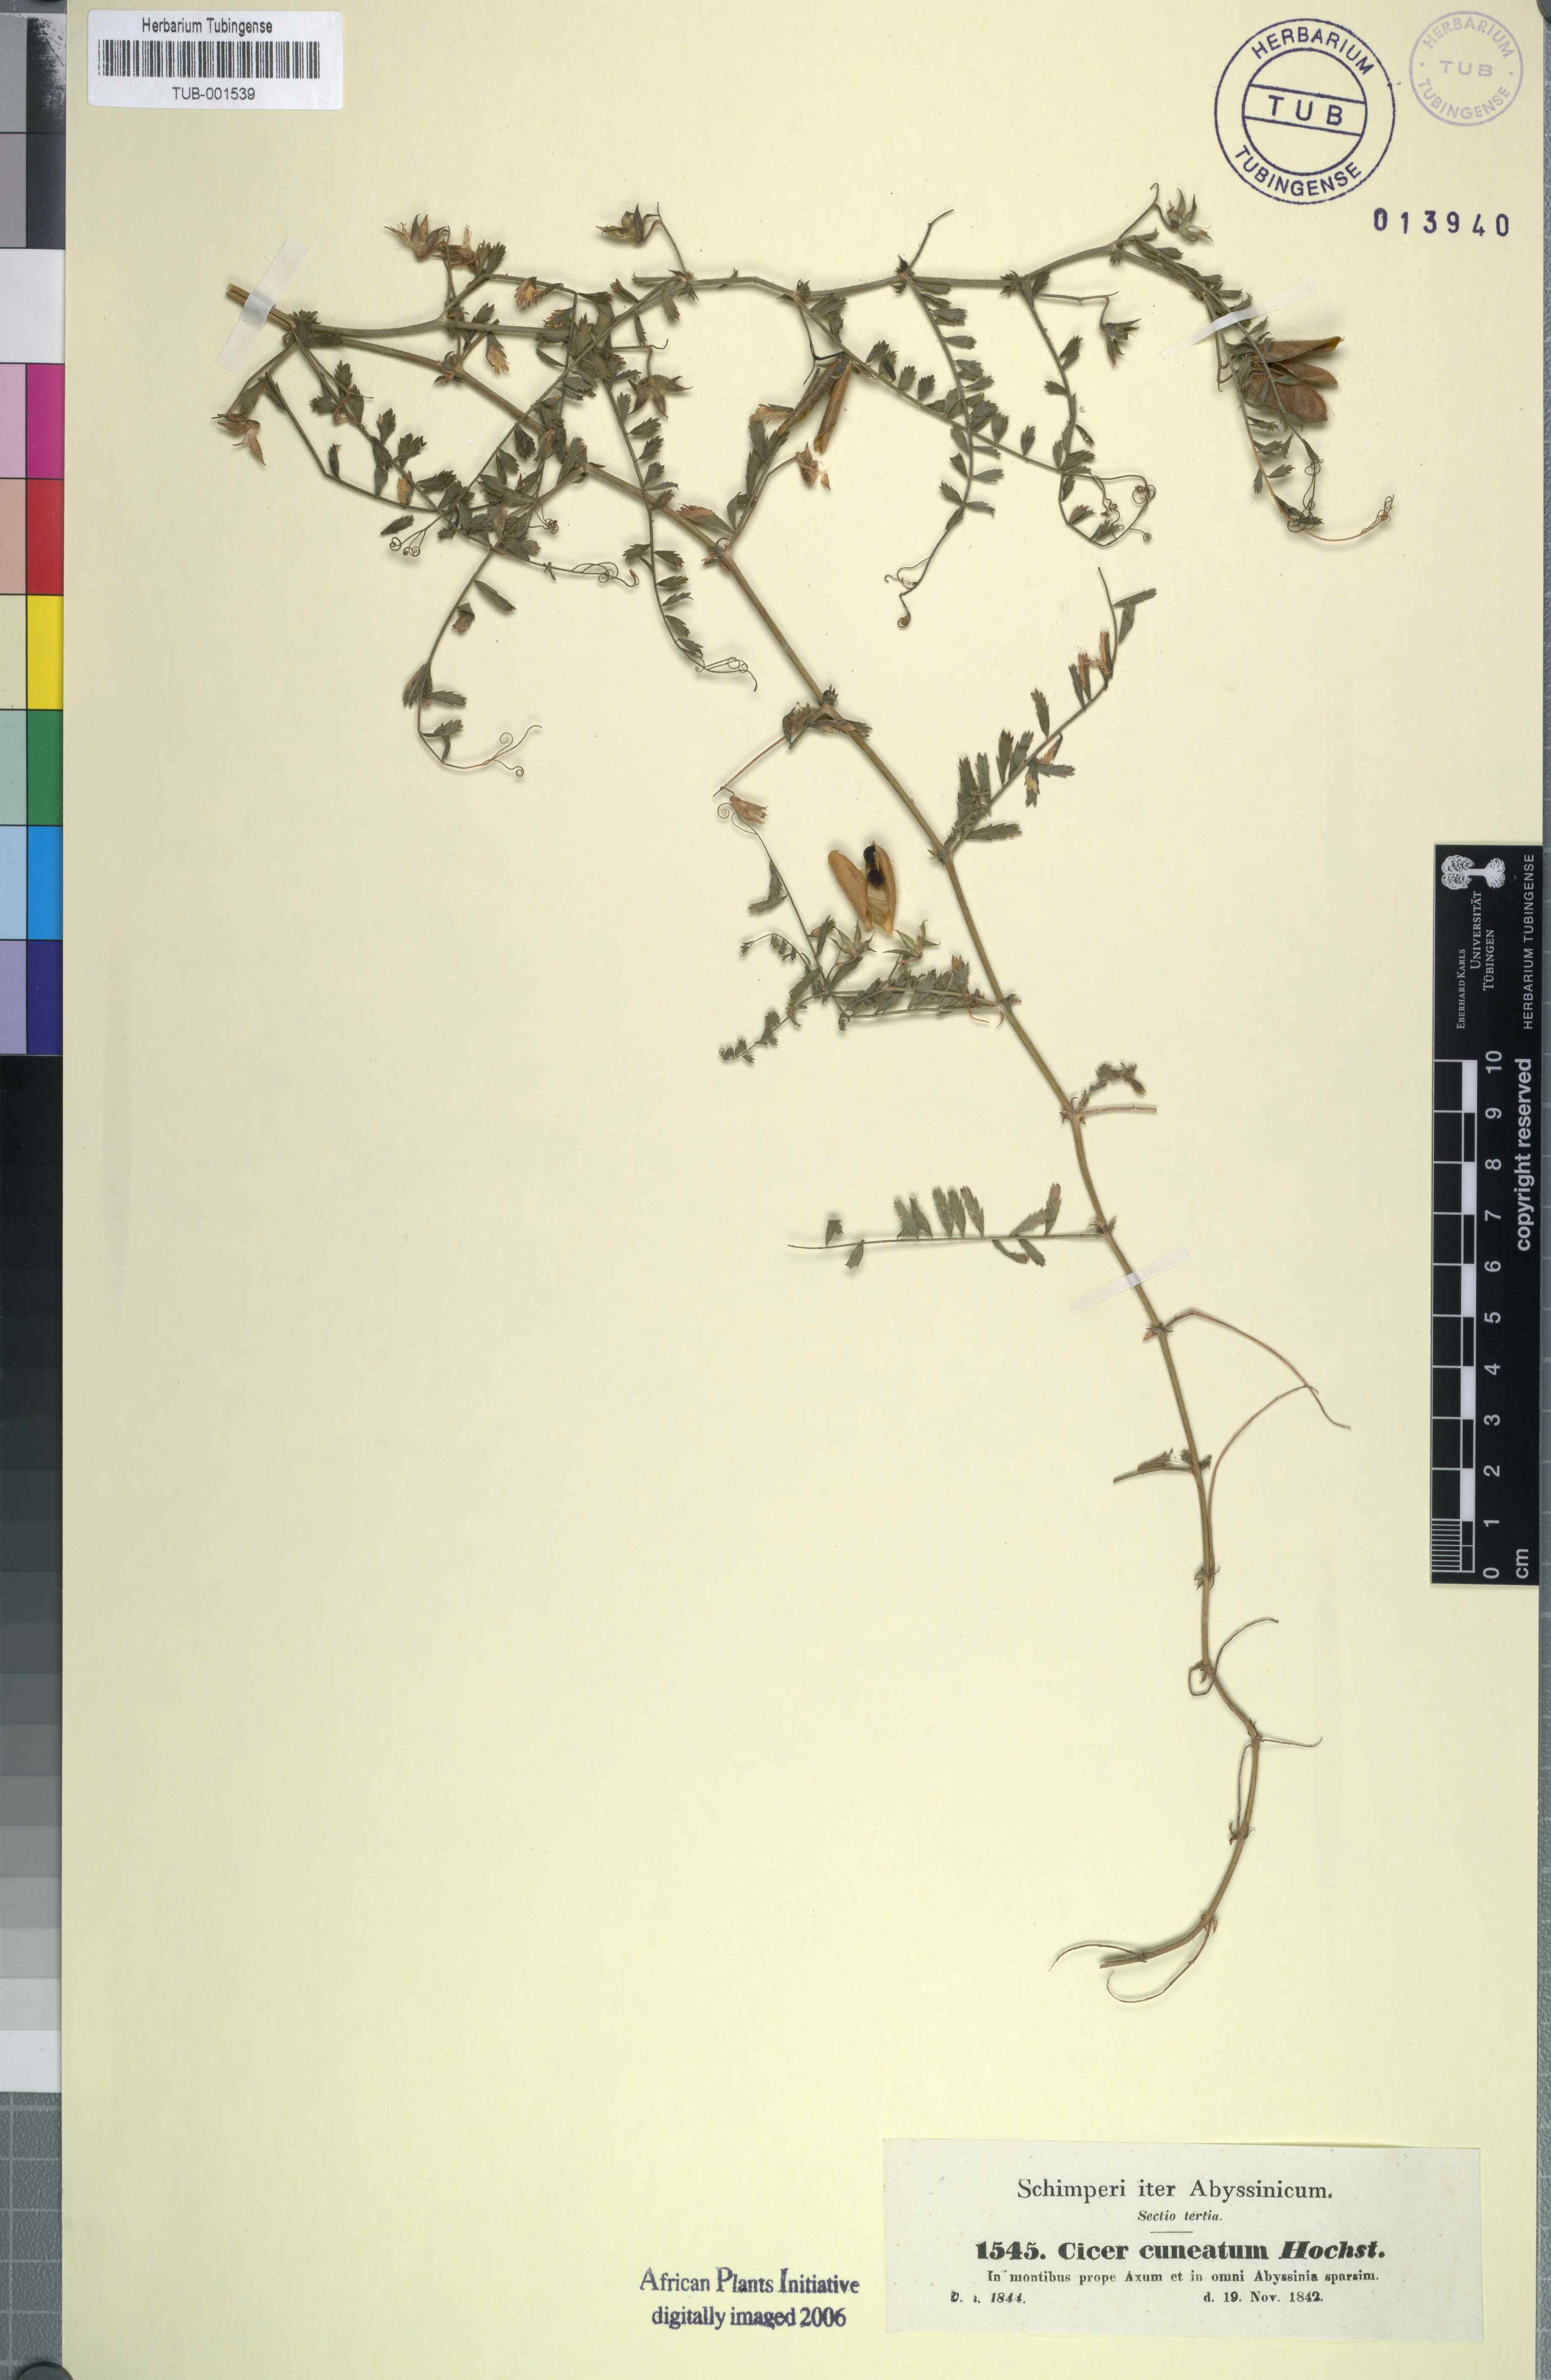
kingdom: Plantae
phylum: Tracheophyta
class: Magnoliopsida
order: Fabales
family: Fabaceae
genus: Cicer
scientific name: Cicer arietinum
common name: Chick pea
